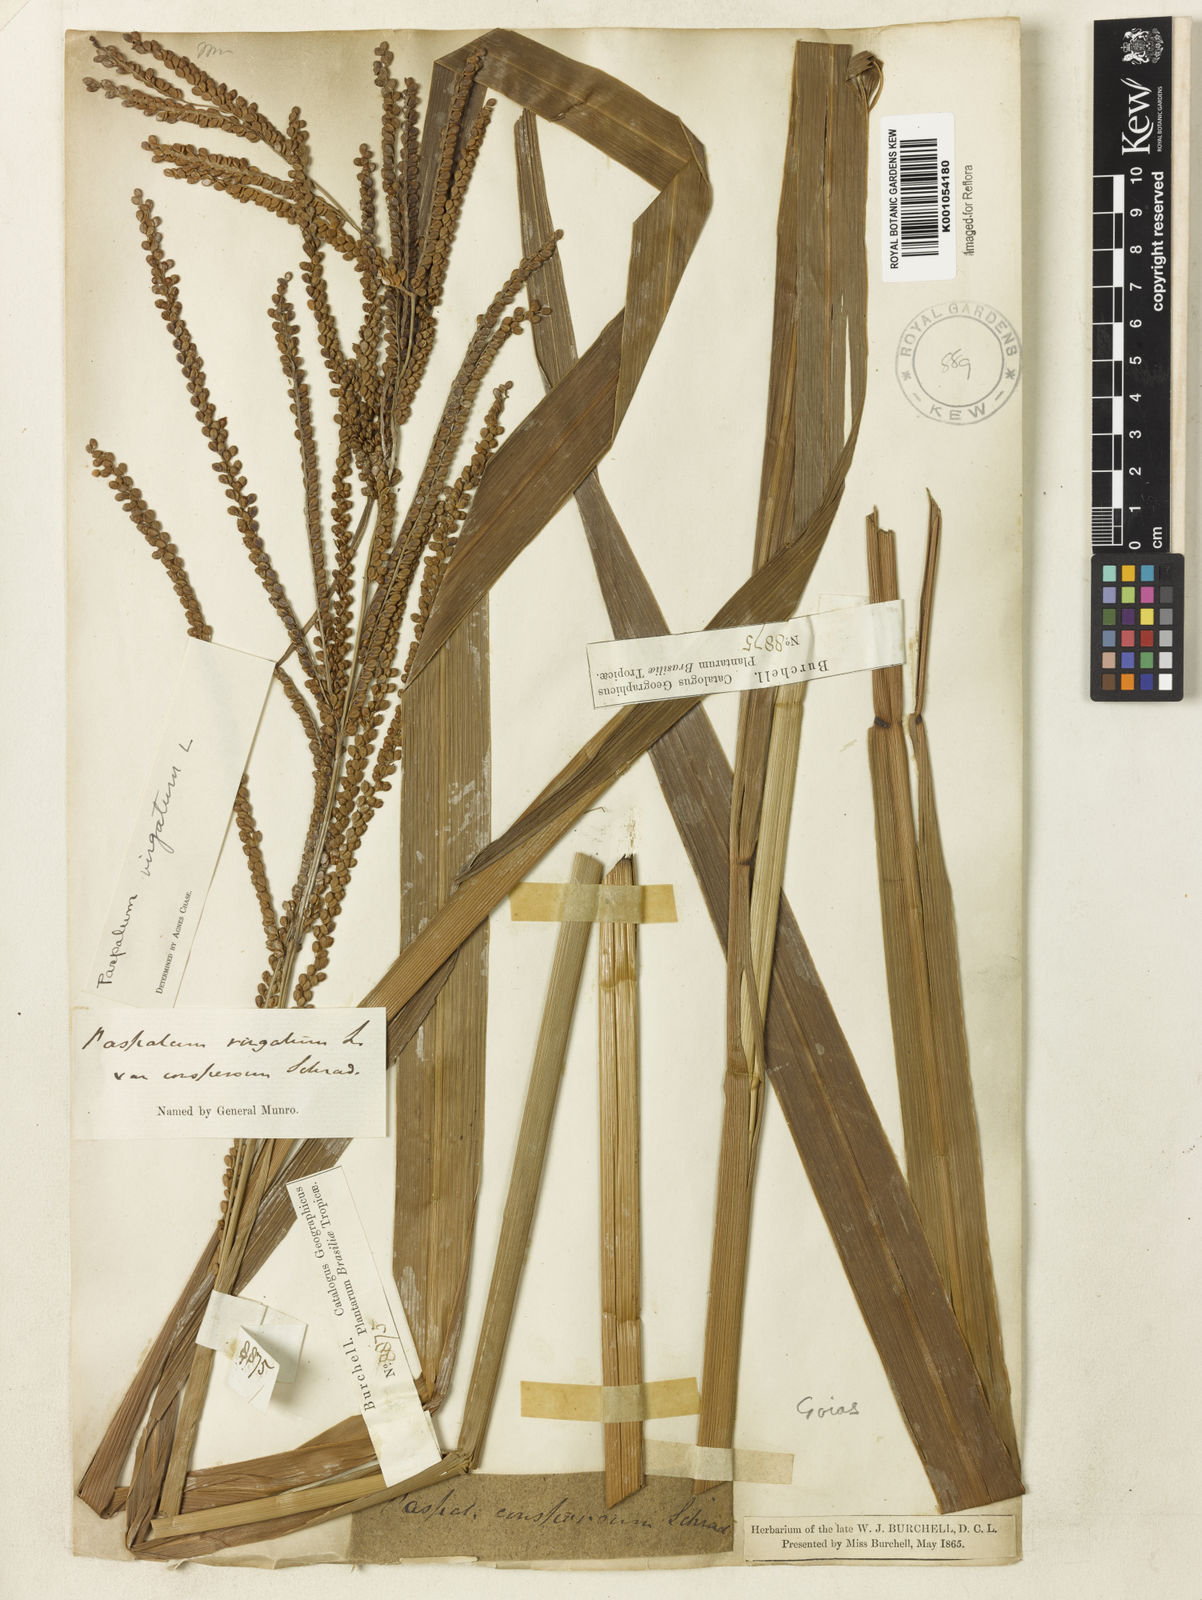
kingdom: Plantae
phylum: Tracheophyta
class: Liliopsida
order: Poales
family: Poaceae
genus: Paspalum
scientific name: Paspalum virgatum
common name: Talquezal
